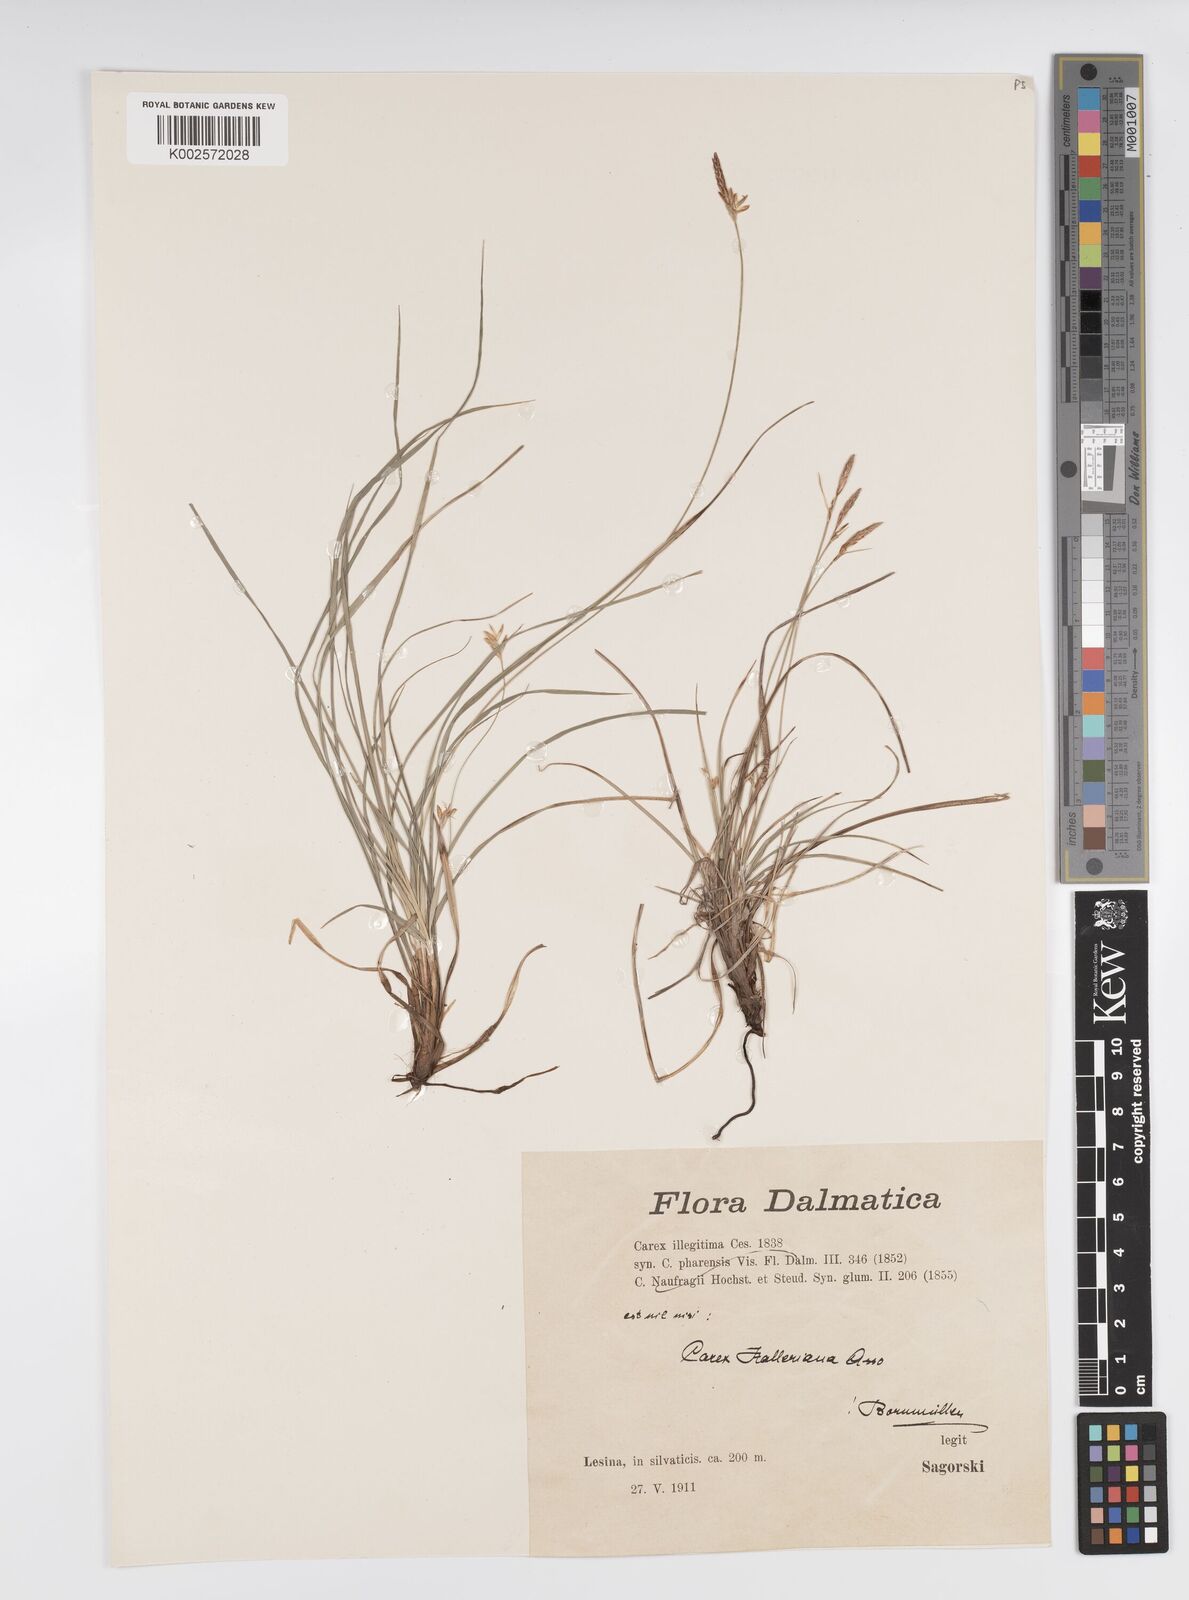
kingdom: Plantae
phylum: Tracheophyta
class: Liliopsida
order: Poales
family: Cyperaceae
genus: Carex
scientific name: Carex halleriana
